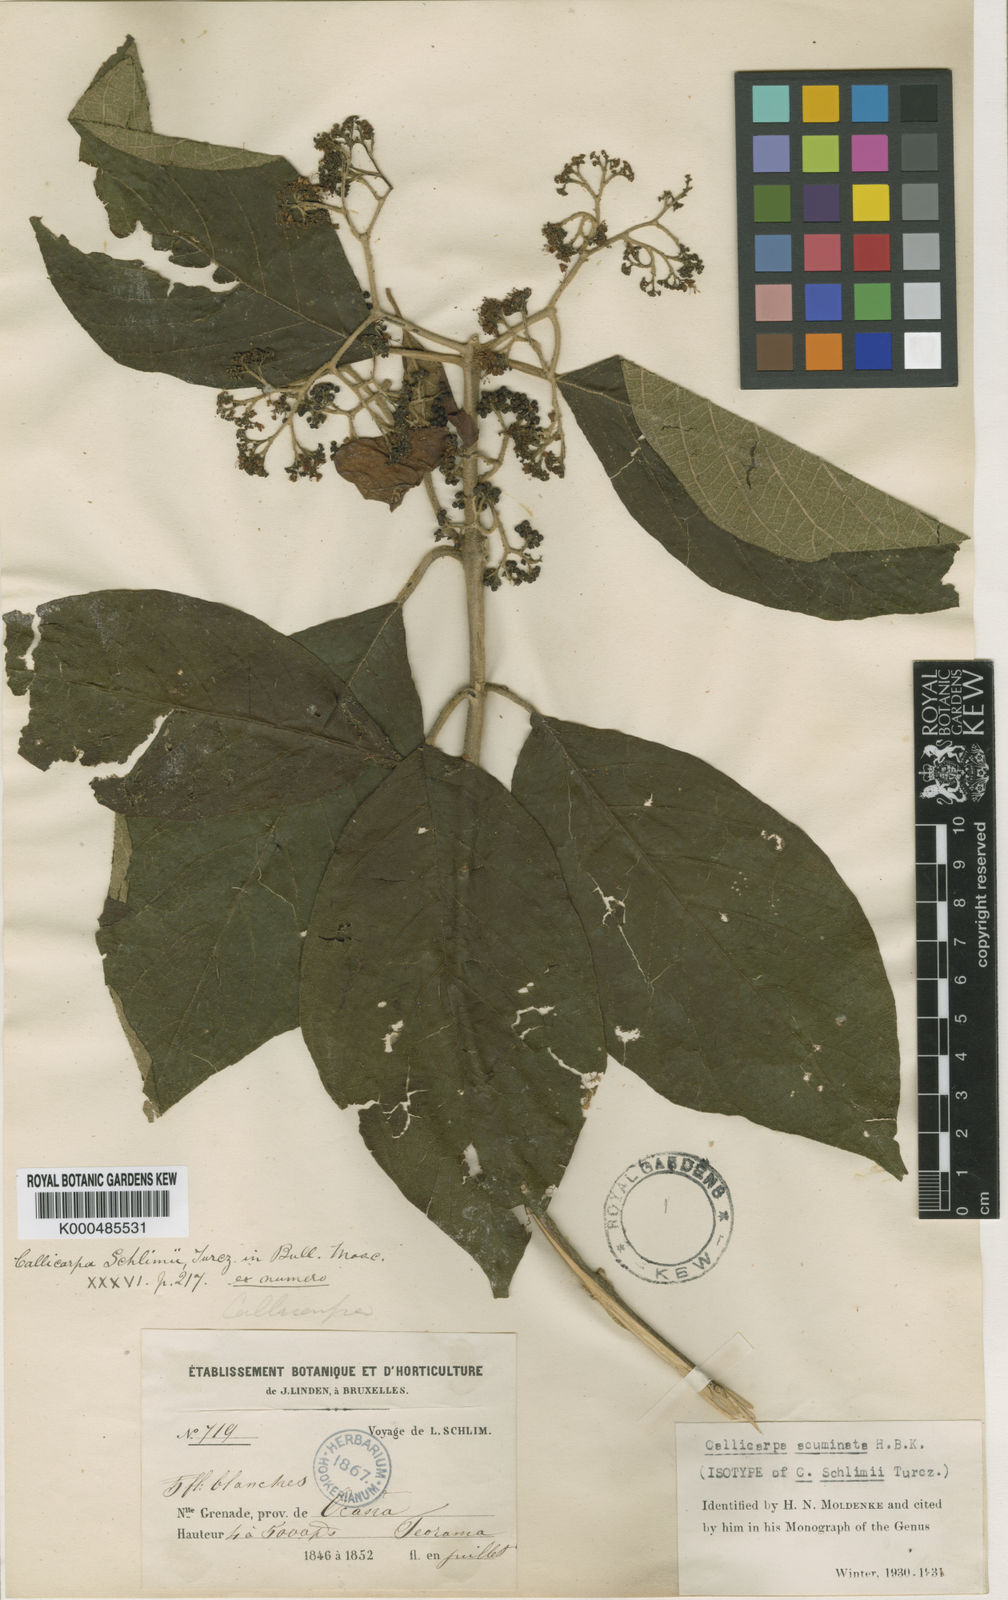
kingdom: Plantae
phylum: Tracheophyta
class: Magnoliopsida
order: Lamiales
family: Lamiaceae
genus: Callicarpa
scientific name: Callicarpa acuminata
